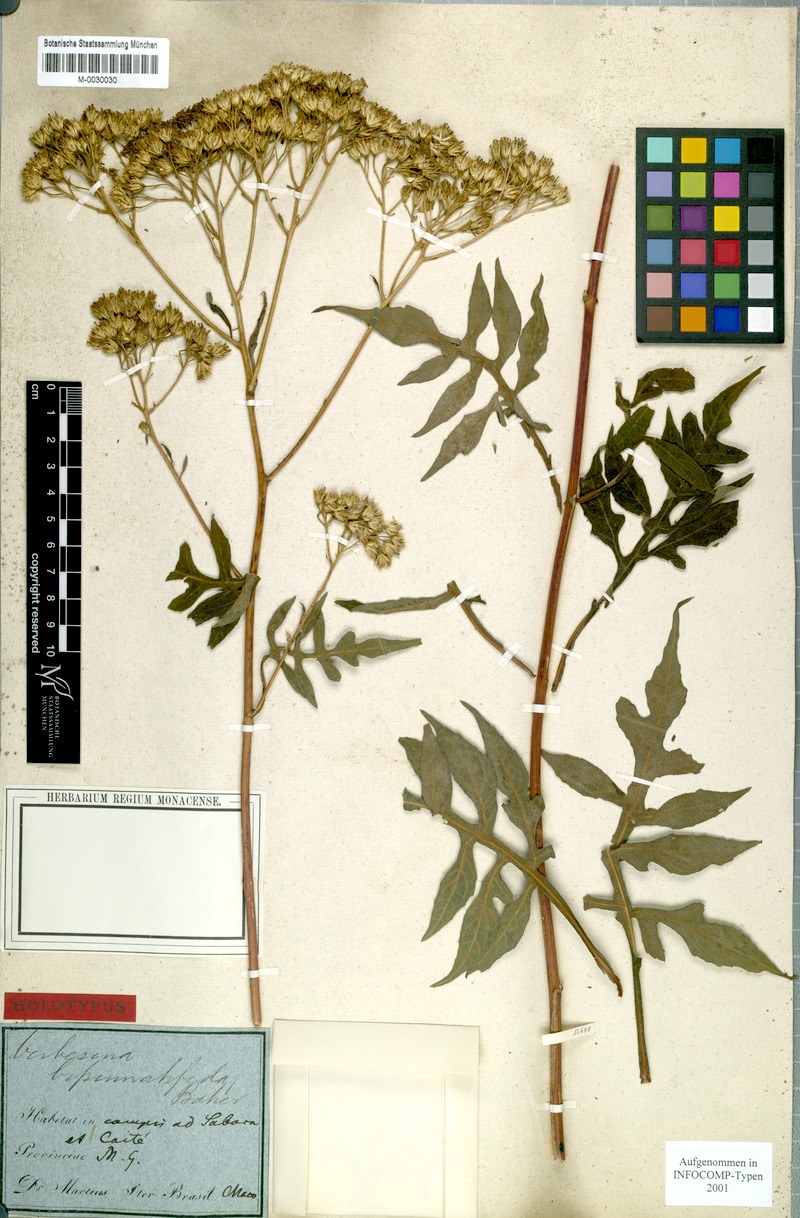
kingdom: Plantae
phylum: Tracheophyta
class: Magnoliopsida
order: Asterales
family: Asteraceae
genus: Verbesina
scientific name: Verbesina bipinnatifida
